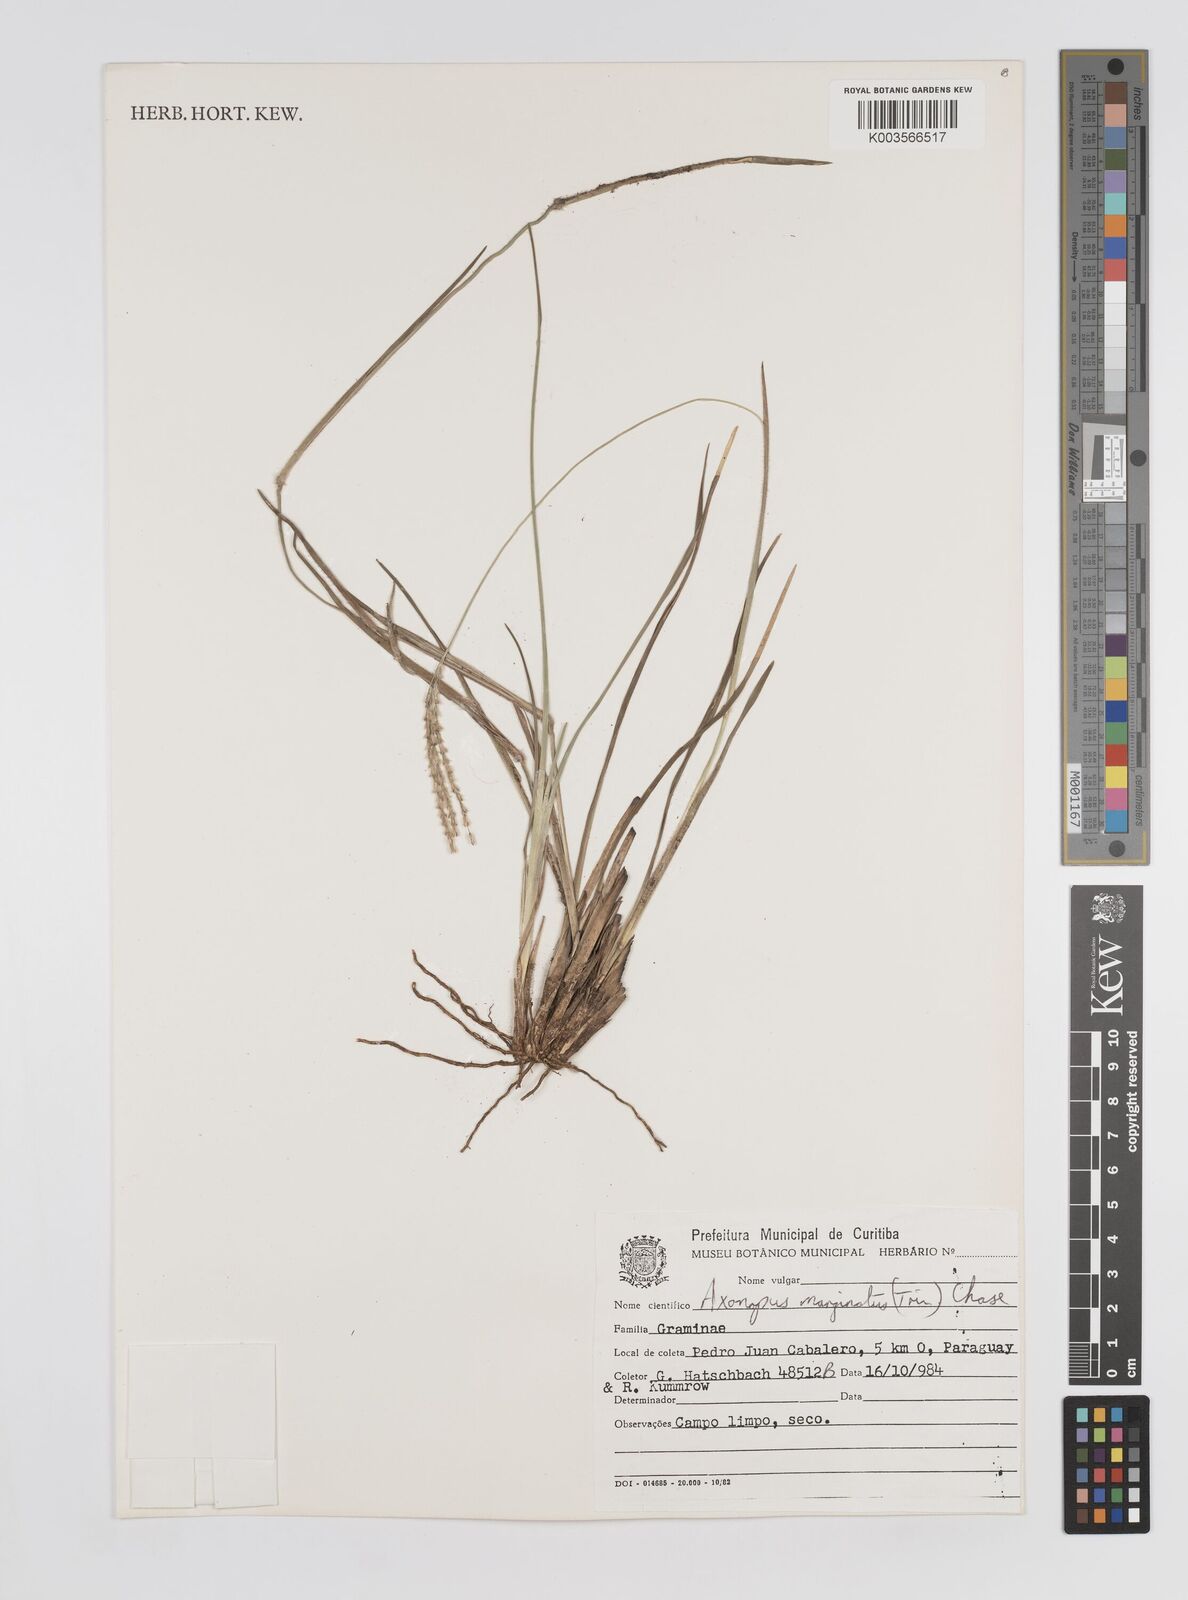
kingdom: Plantae
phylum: Tracheophyta
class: Liliopsida
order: Poales
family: Poaceae
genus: Axonopus
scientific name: Axonopus marginatus
